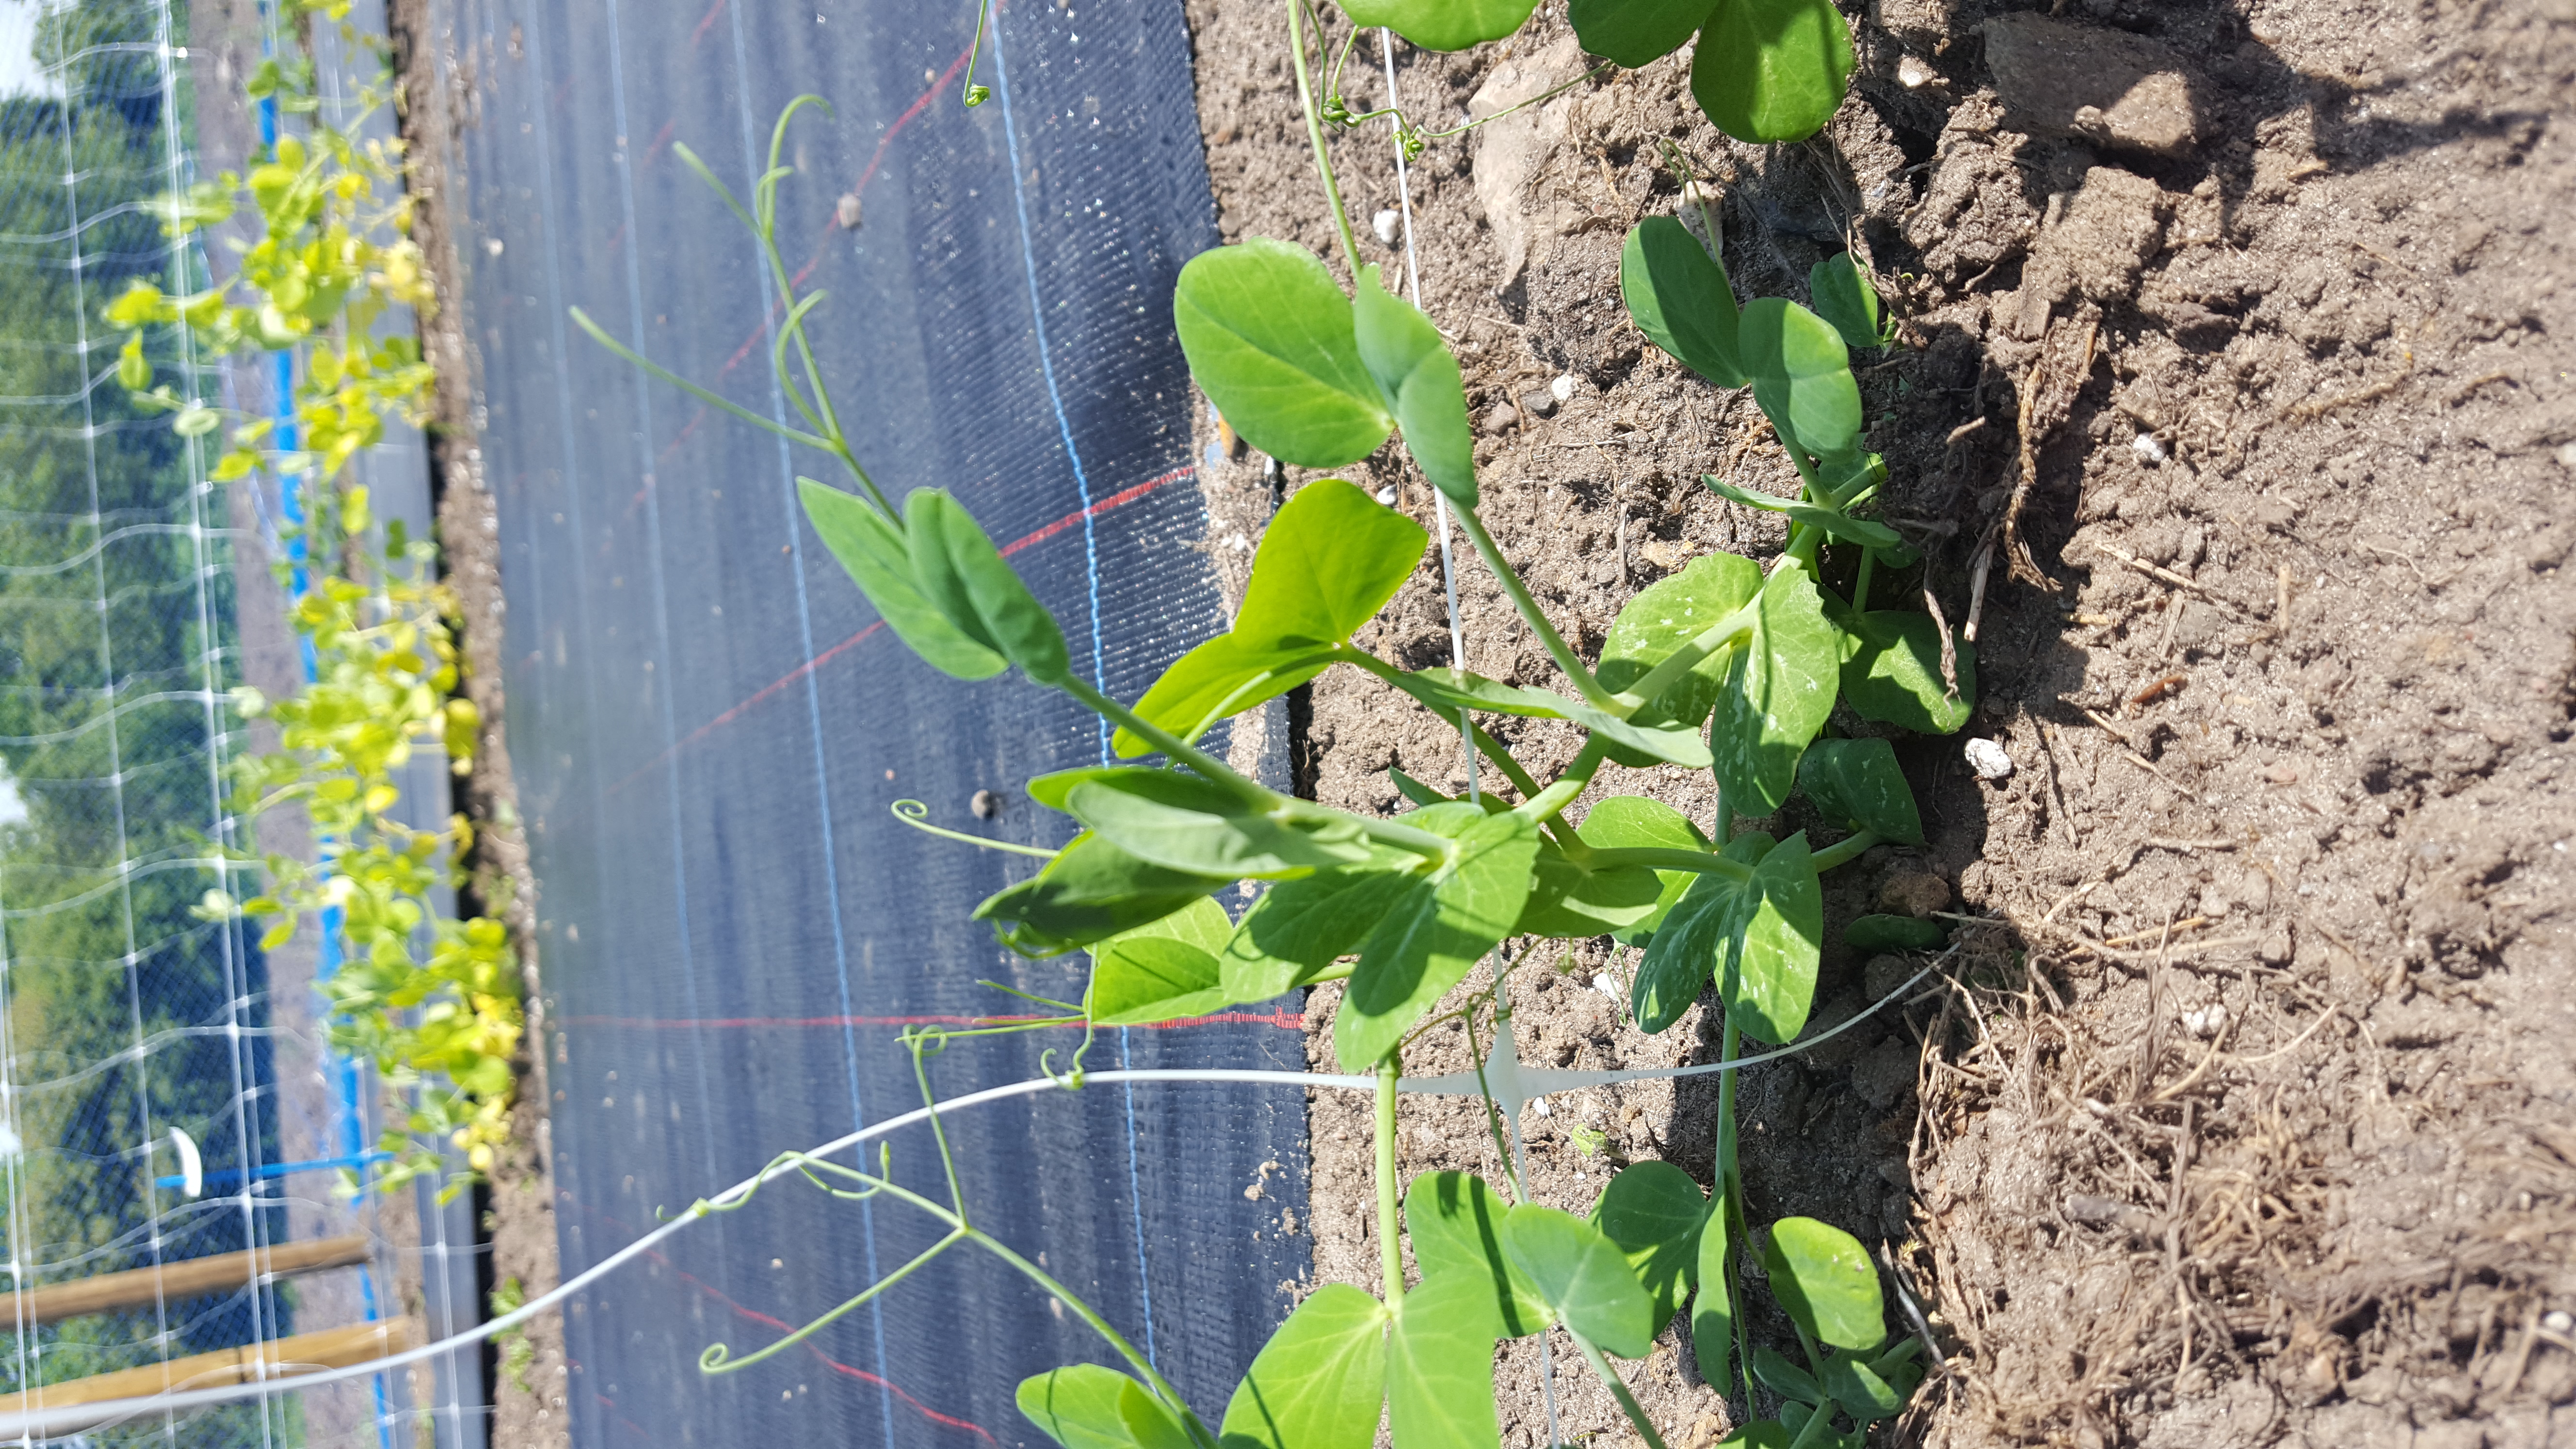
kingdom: Plantae
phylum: Tracheophyta
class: Magnoliopsida
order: Fabales
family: Fabaceae
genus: Lathyrus
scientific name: Lathyrus oleraceus
